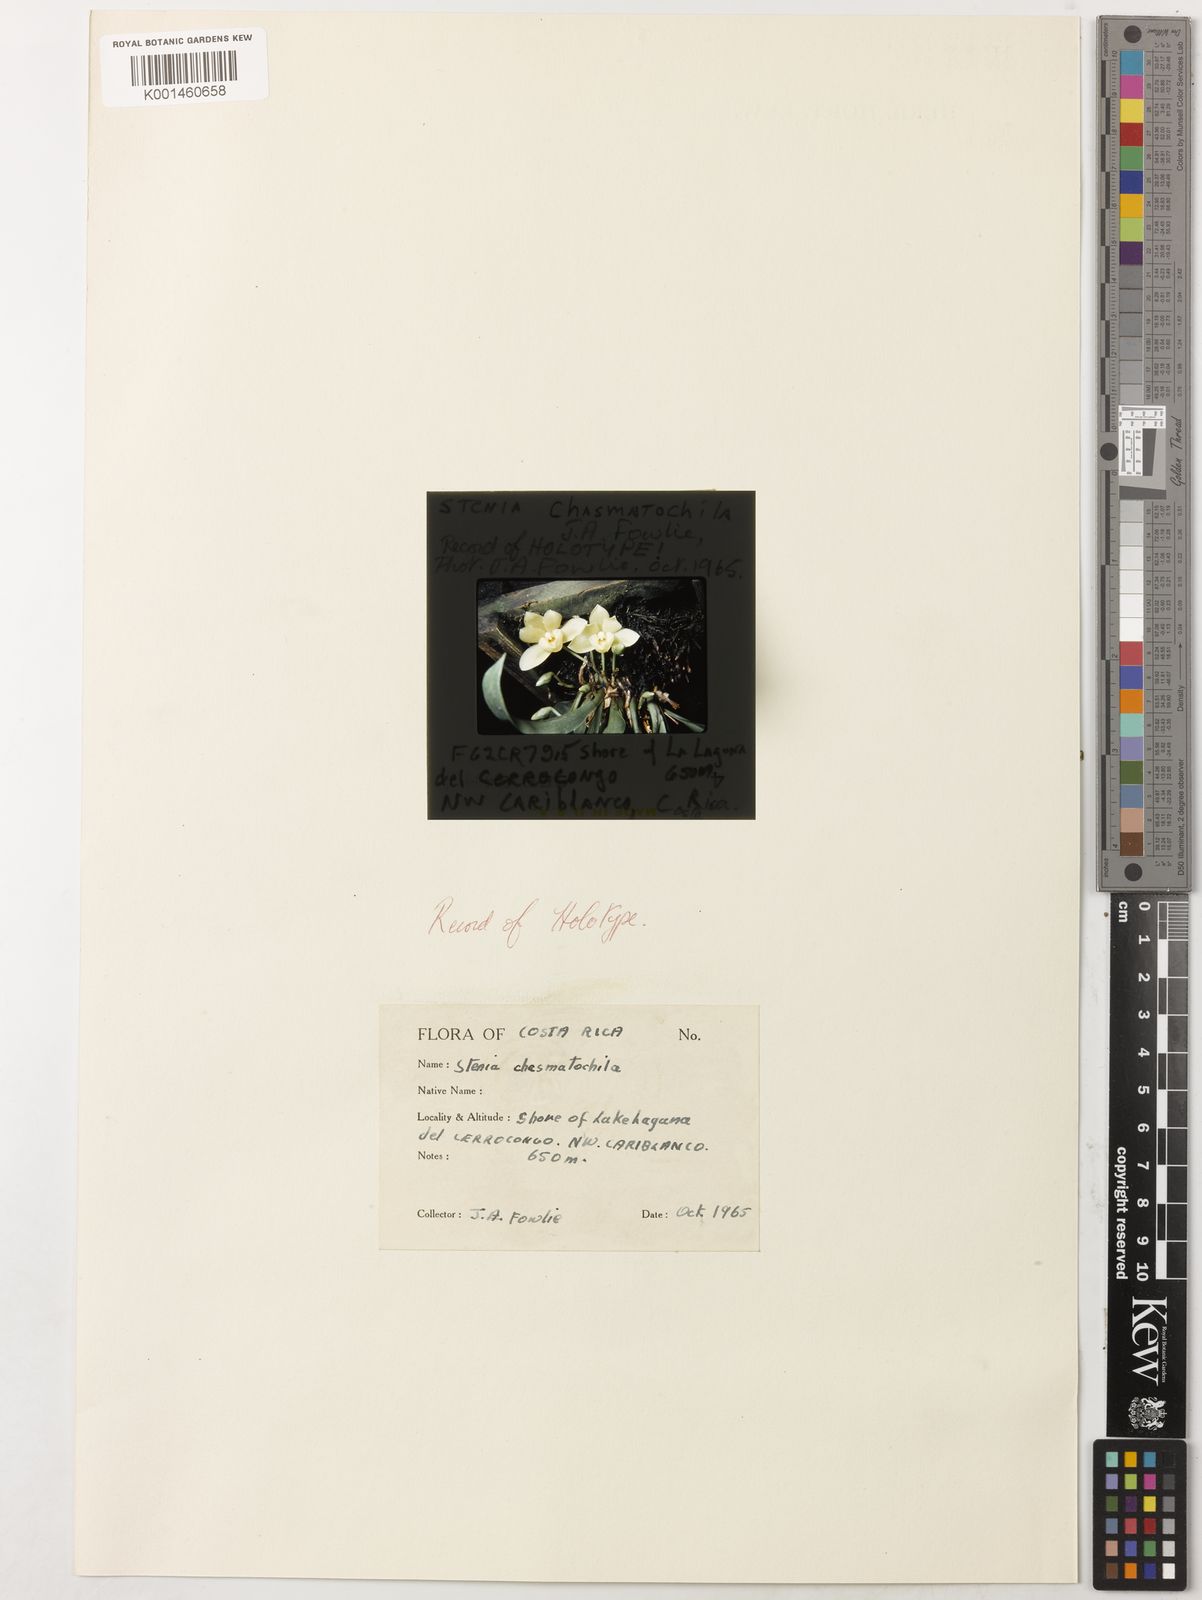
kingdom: Plantae
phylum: Tracheophyta
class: Liliopsida
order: Asparagales
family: Orchidaceae
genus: Chaubardiella
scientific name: Chaubardiella subquadrata
